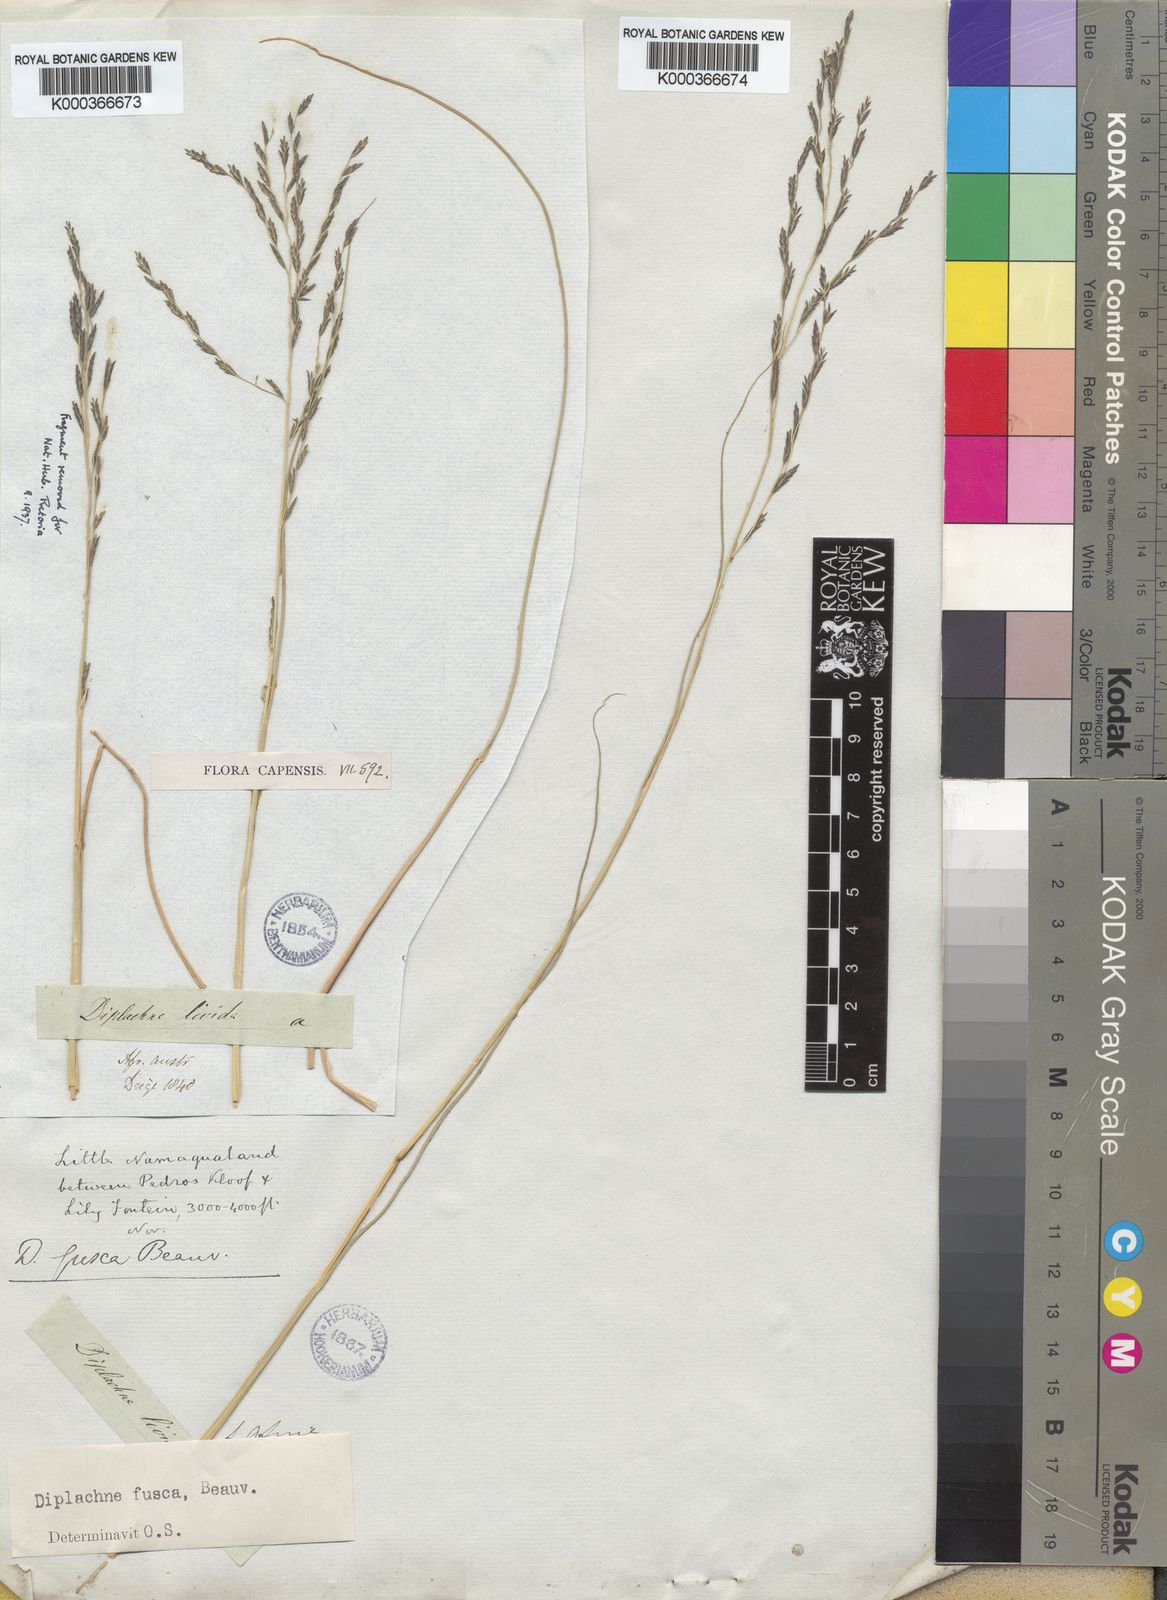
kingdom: Plantae
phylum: Tracheophyta
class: Liliopsida
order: Poales
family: Poaceae
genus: Diplachne
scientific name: Diplachne fusca
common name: Brown beetle grass
